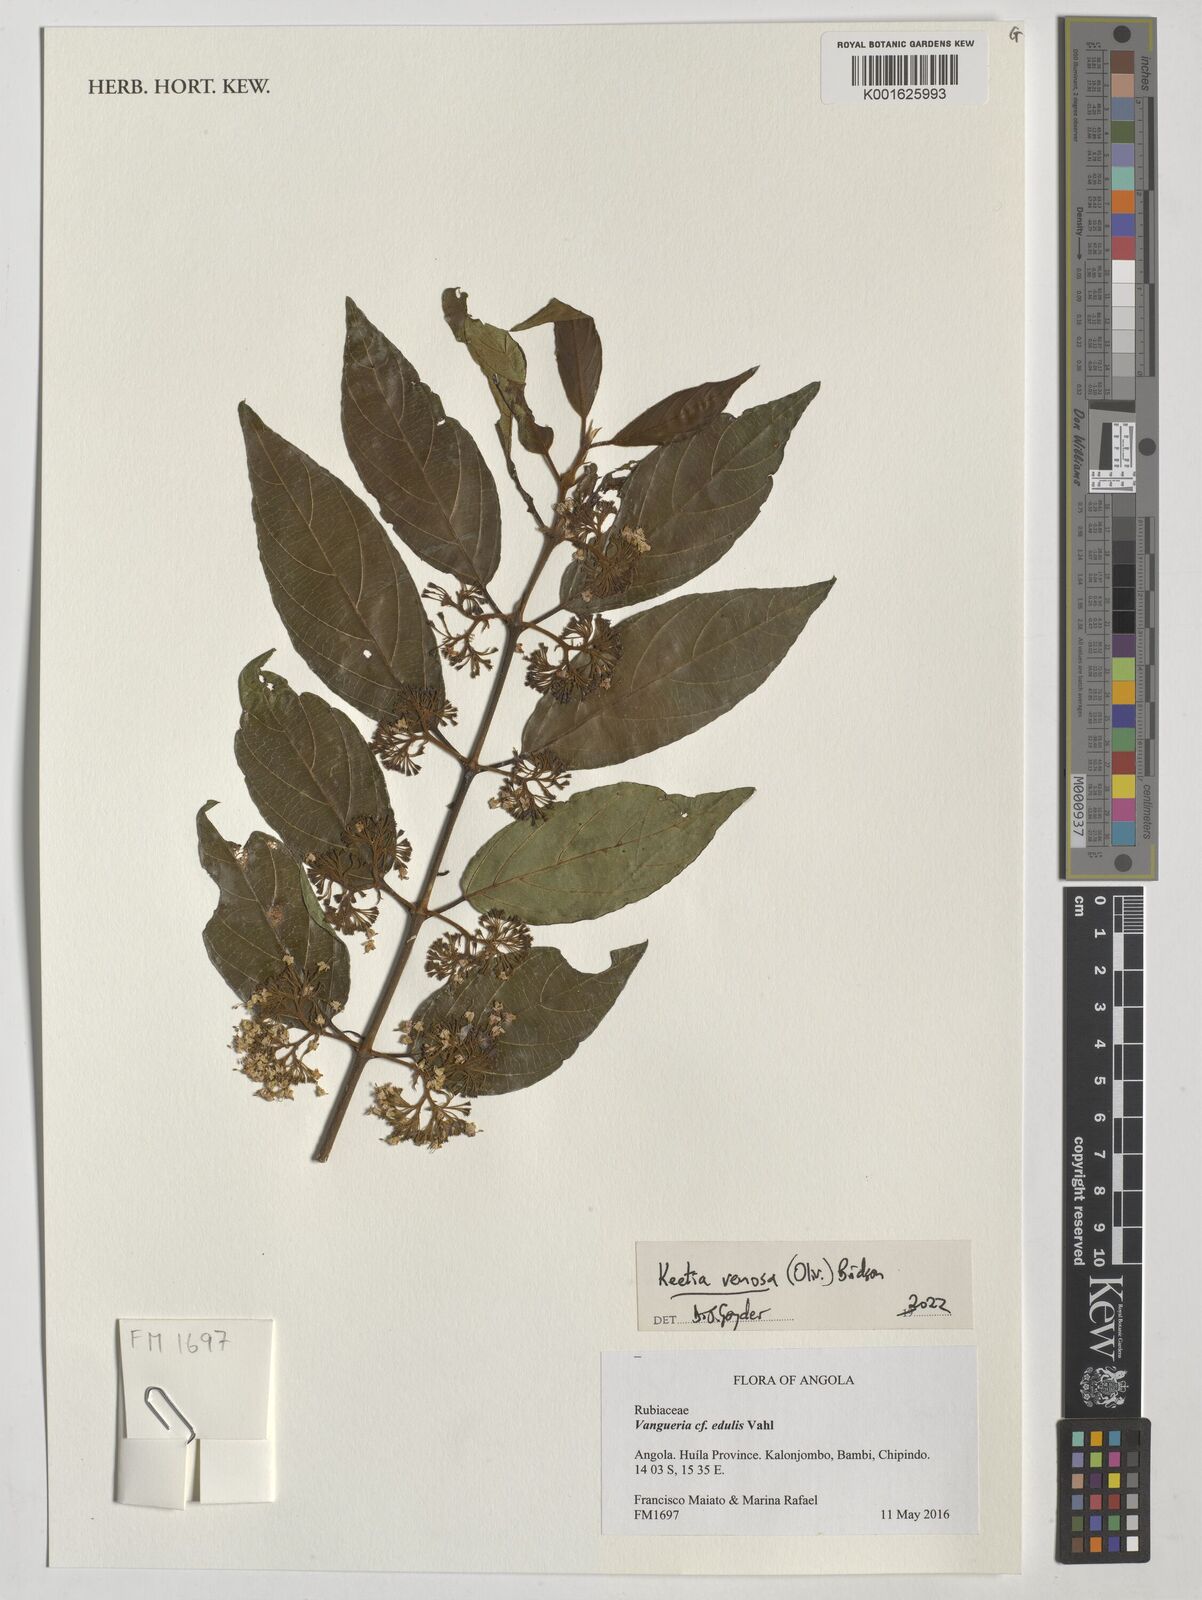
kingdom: Plantae
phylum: Tracheophyta
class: Magnoliopsida
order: Gentianales
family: Rubiaceae
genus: Keetia
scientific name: Keetia venosa
